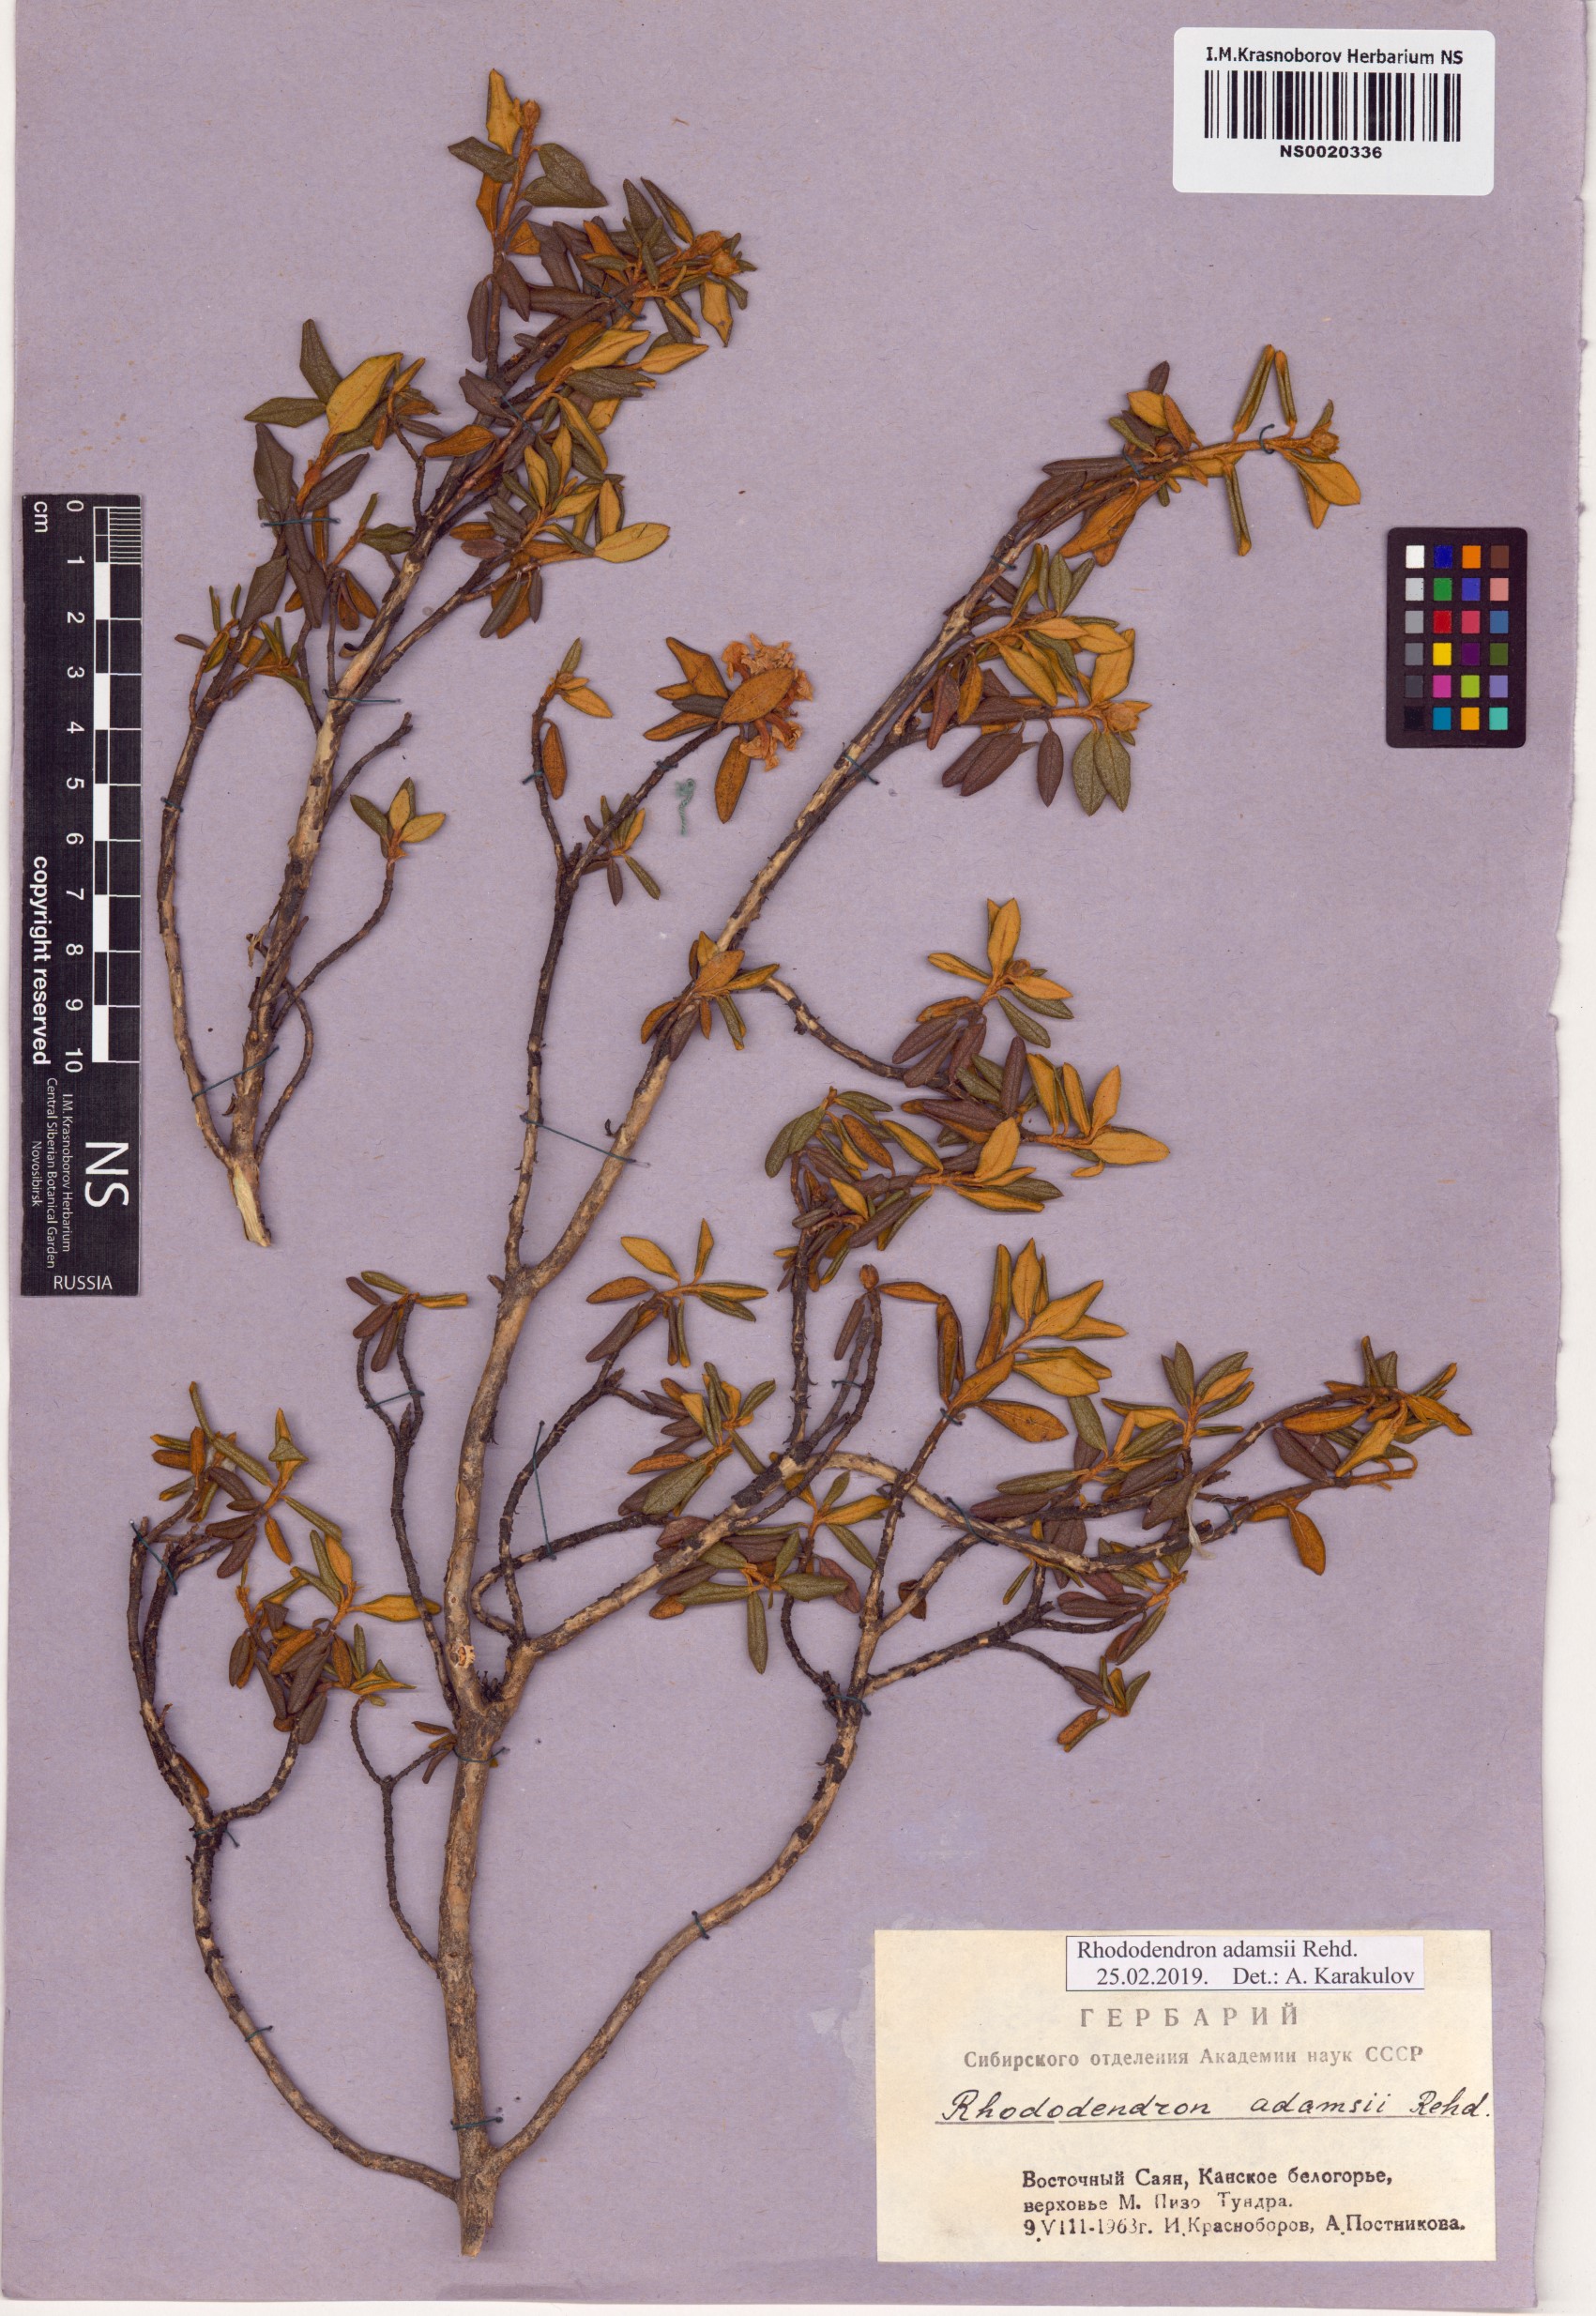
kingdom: Plantae
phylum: Tracheophyta
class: Magnoliopsida
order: Ericales
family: Ericaceae
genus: Rhododendron
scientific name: Rhododendron adamsii
